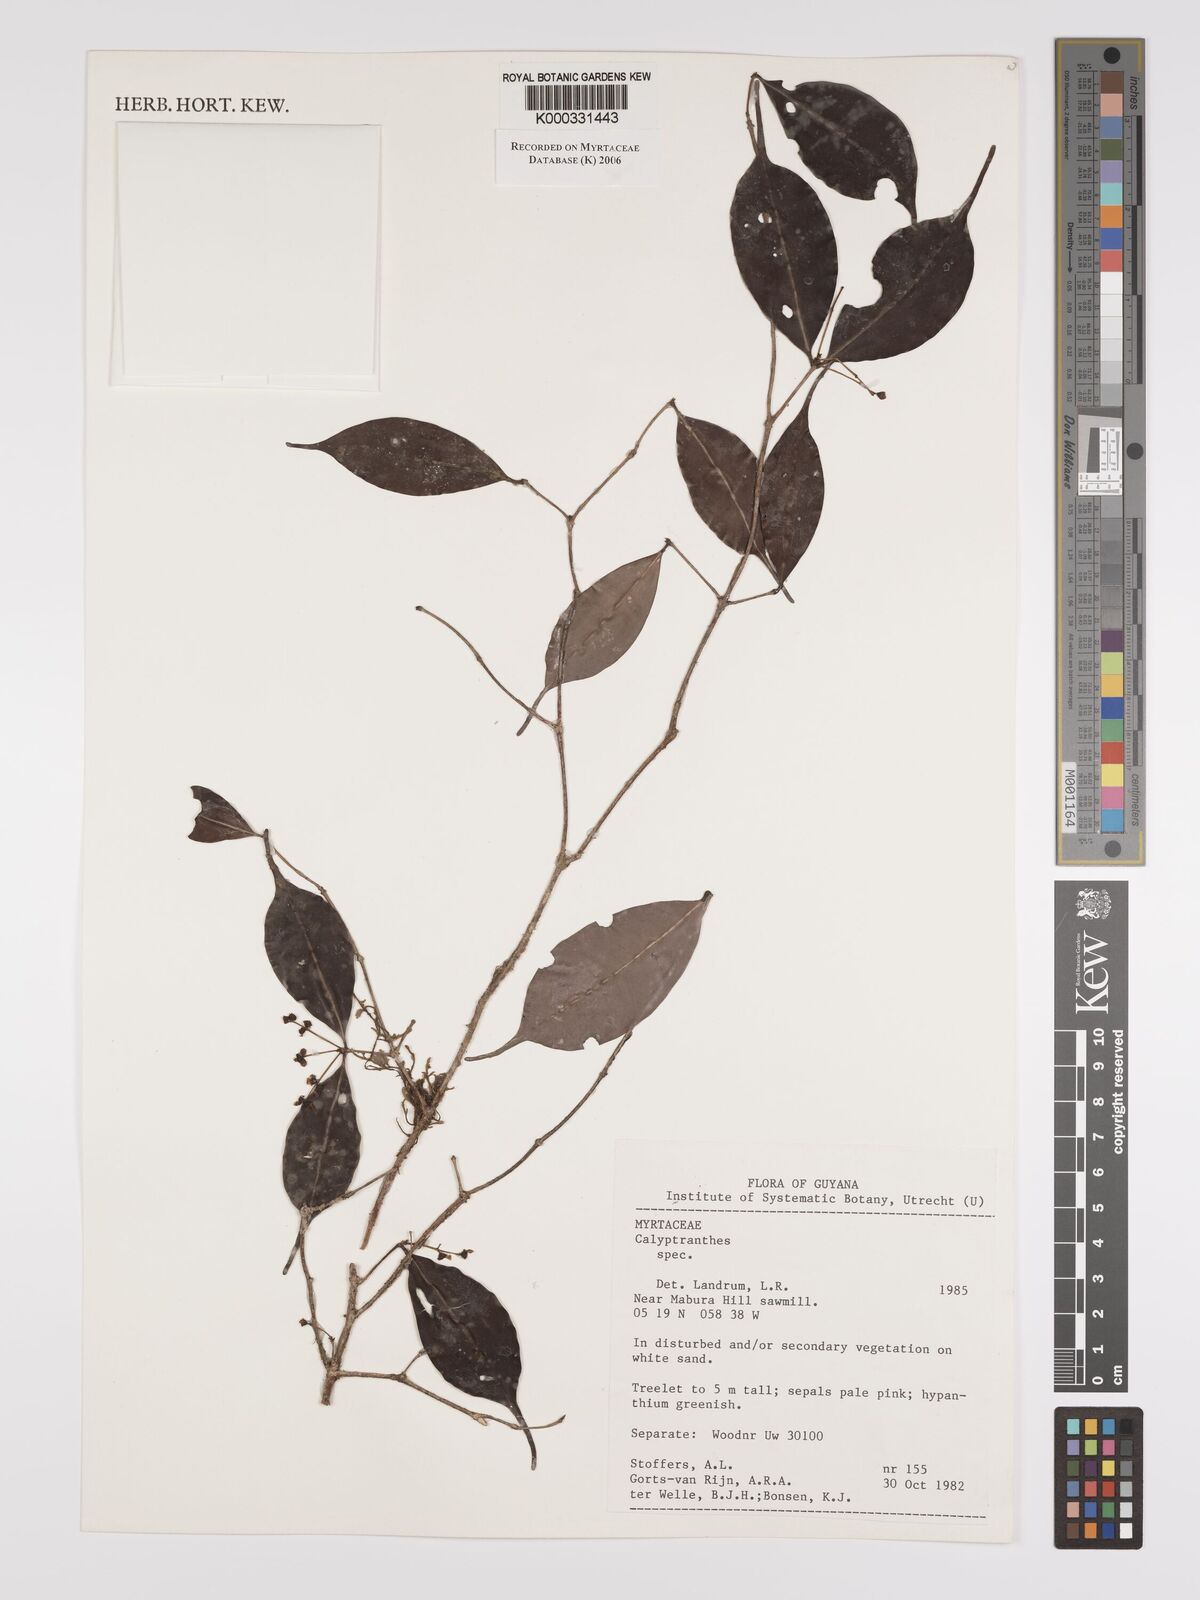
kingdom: Plantae
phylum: Tracheophyta
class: Magnoliopsida
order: Myrtales
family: Myrtaceae
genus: Calyptranthes
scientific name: Calyptranthes
